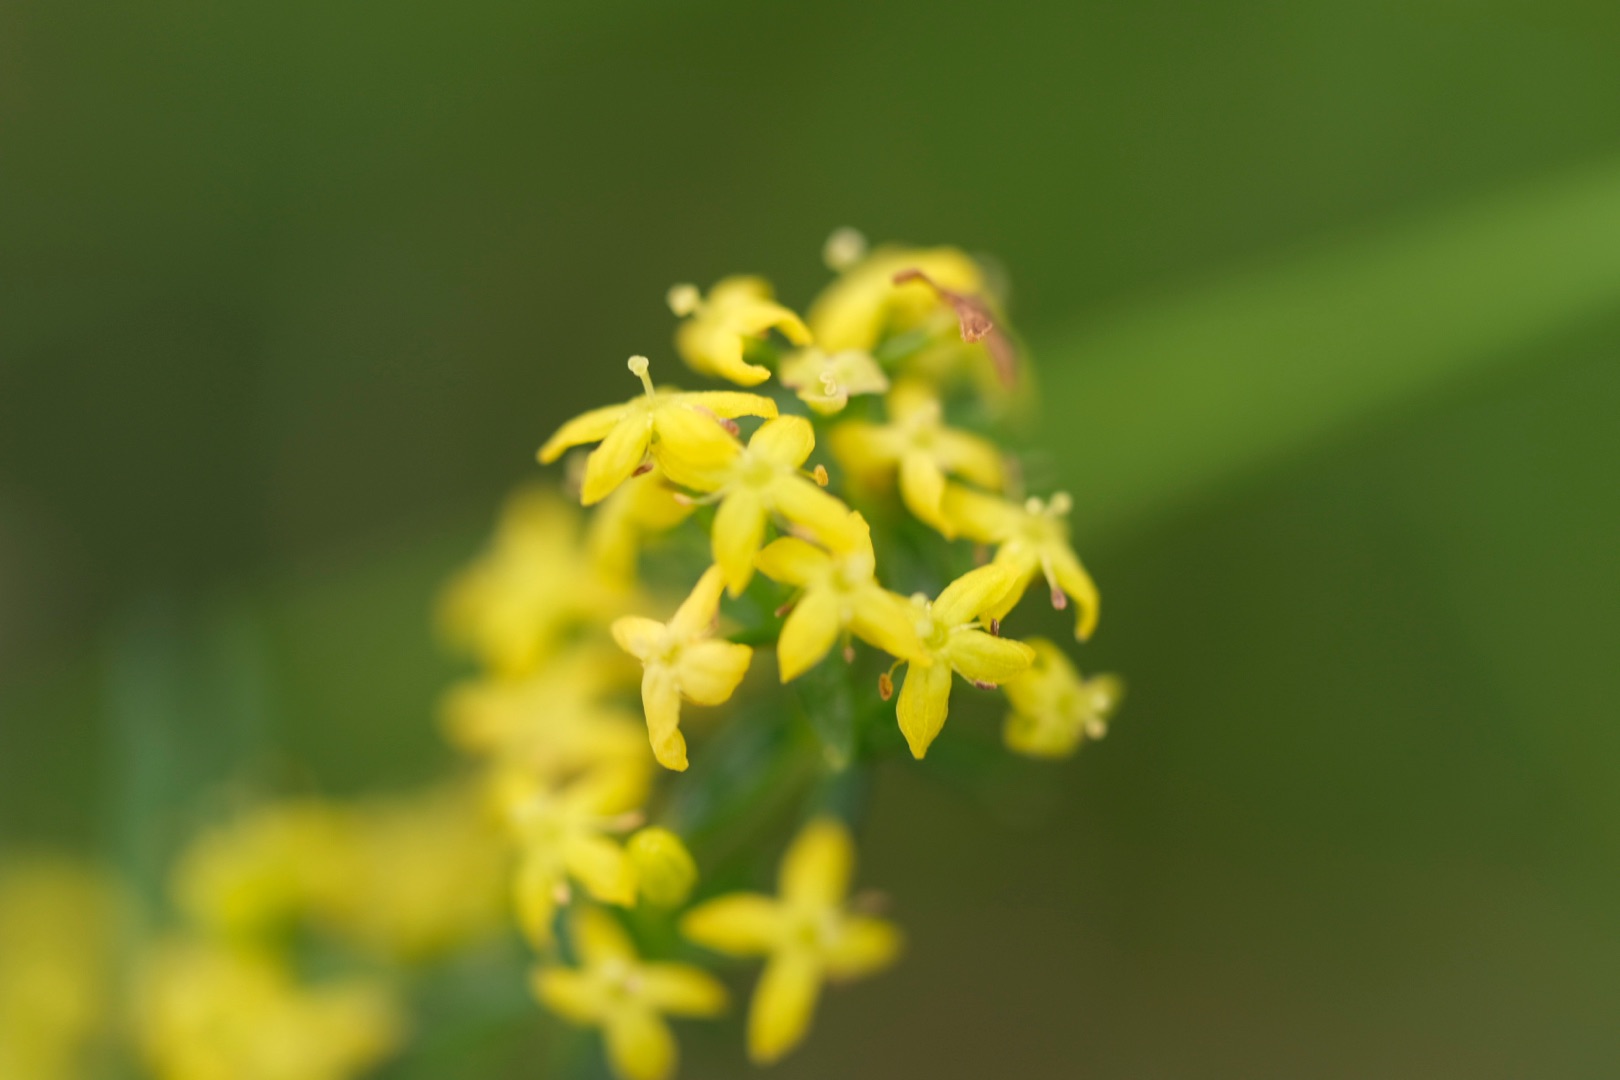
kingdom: Plantae
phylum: Tracheophyta
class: Magnoliopsida
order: Gentianales
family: Rubiaceae
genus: Galium
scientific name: Galium verum
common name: Gul snerre
